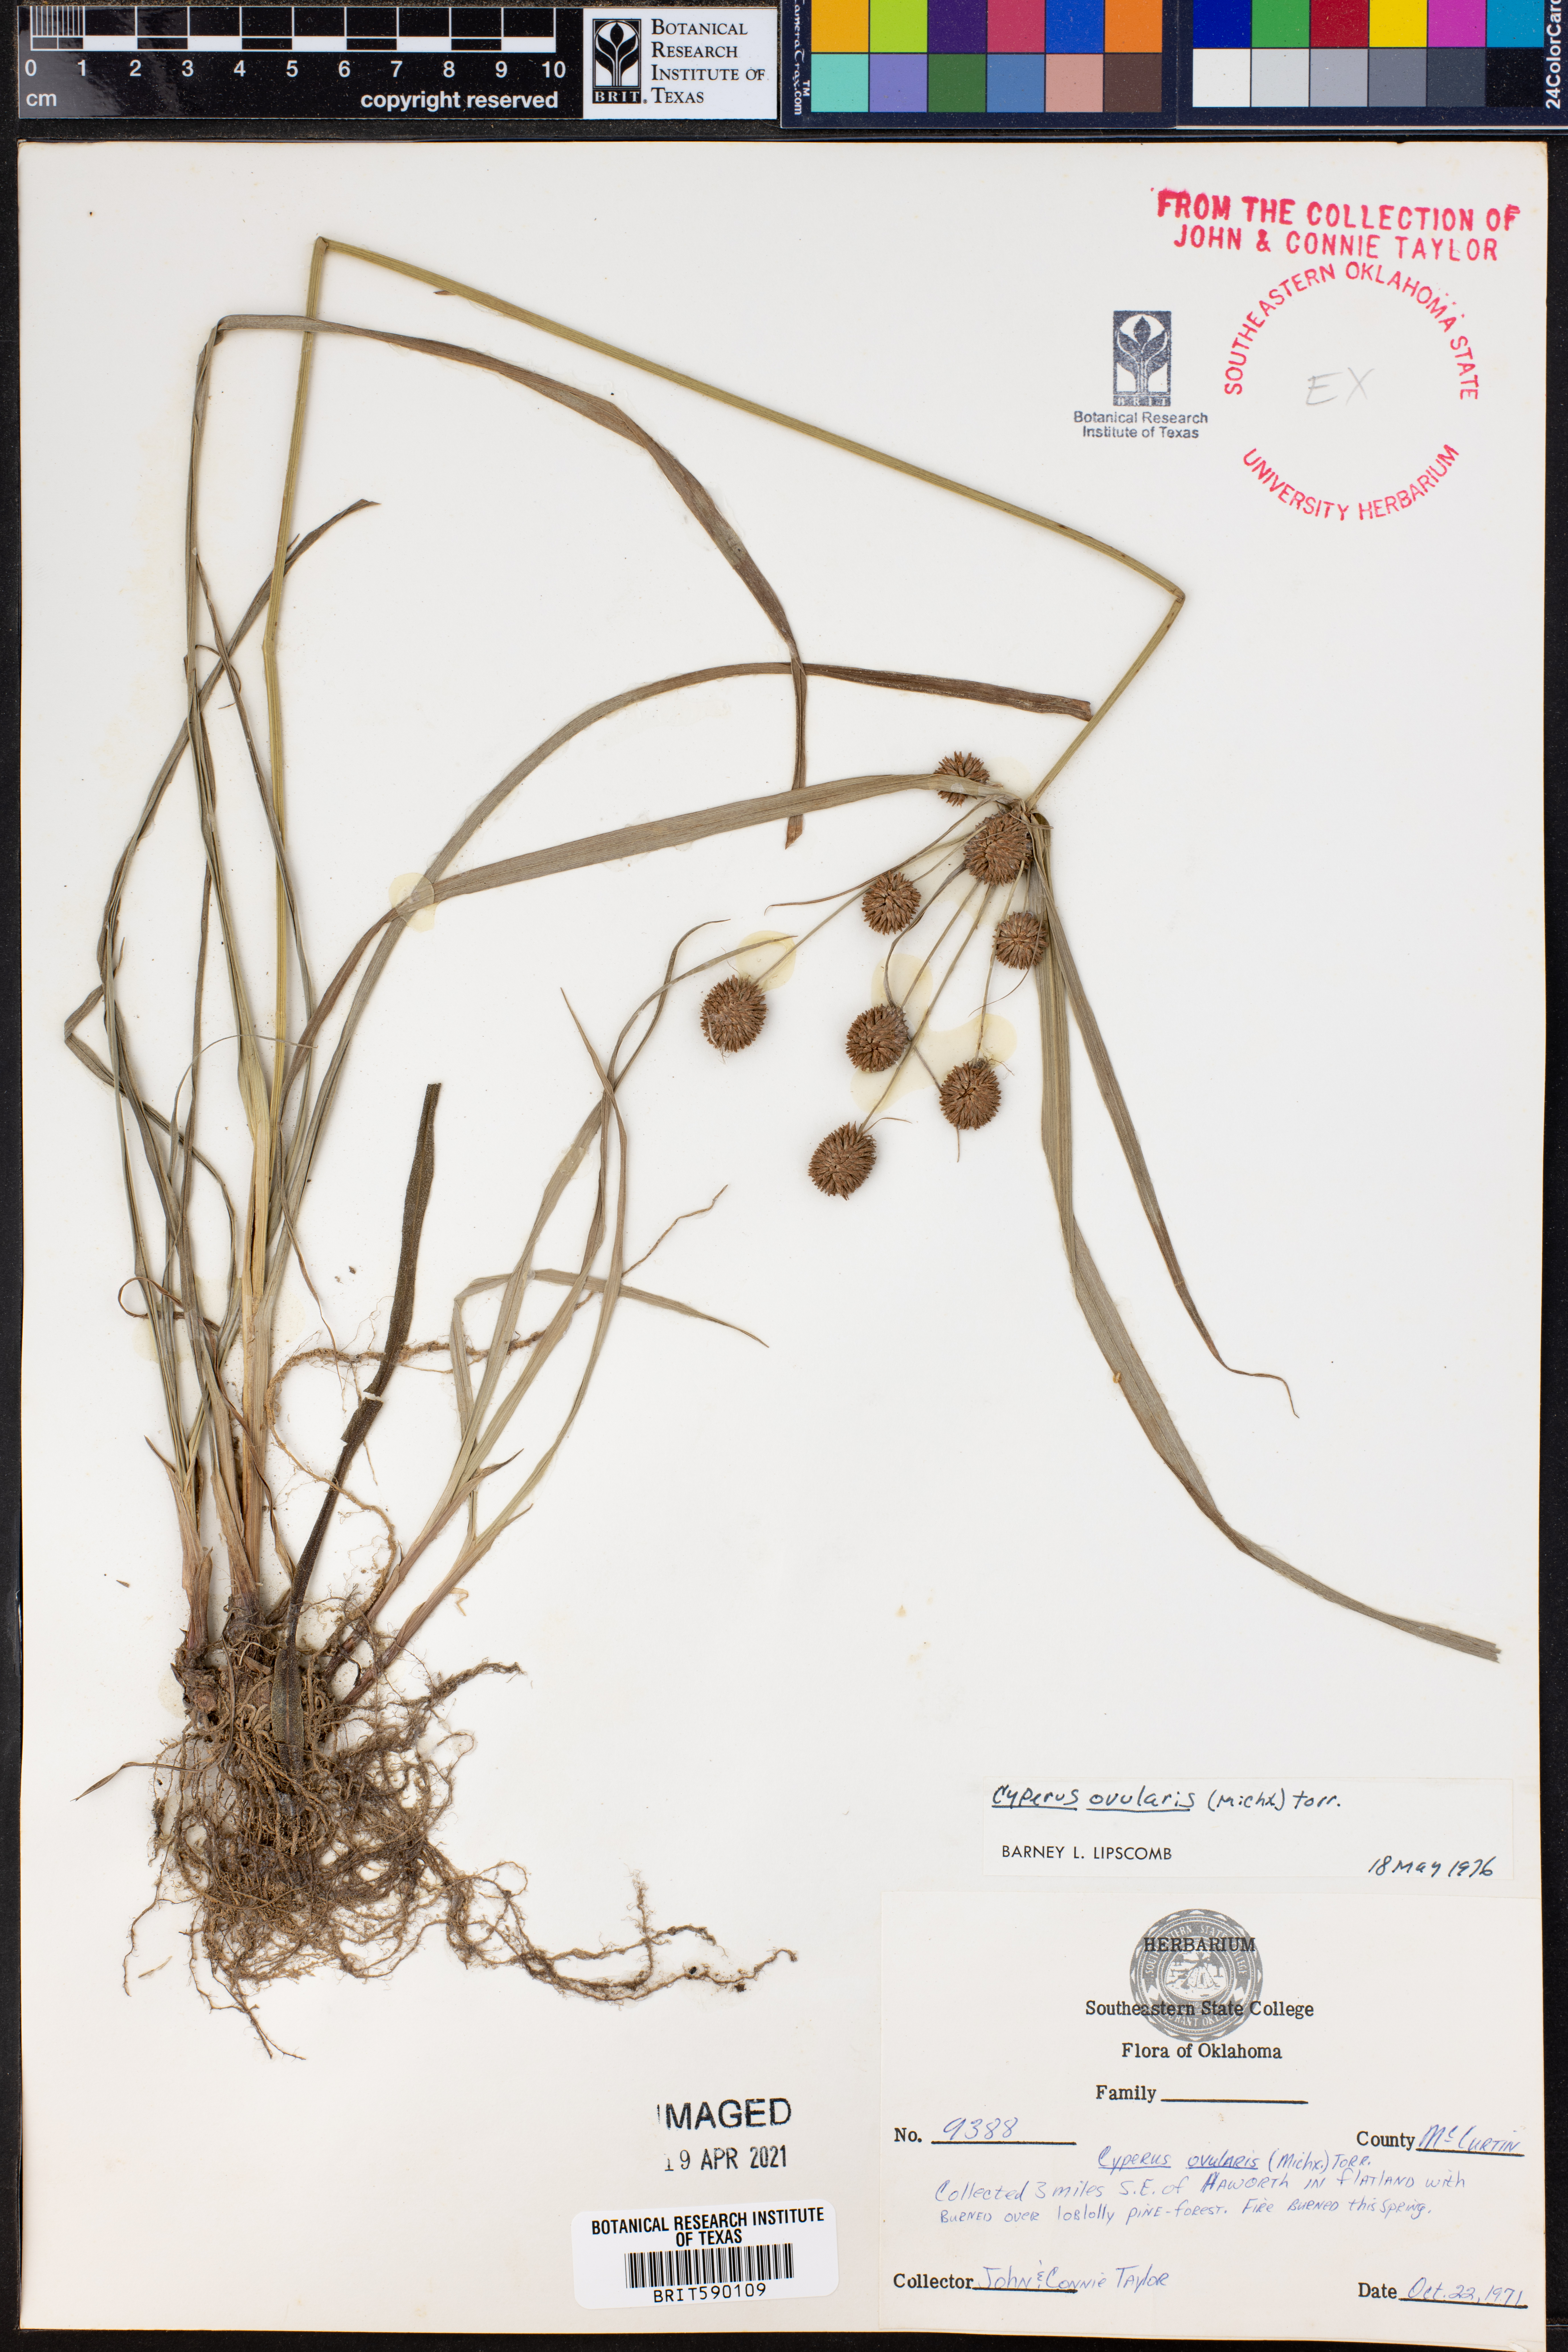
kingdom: Plantae
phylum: Tracheophyta
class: Liliopsida
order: Poales
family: Cyperaceae
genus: Cyperus
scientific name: Cyperus echinatus
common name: Teasel sedge
